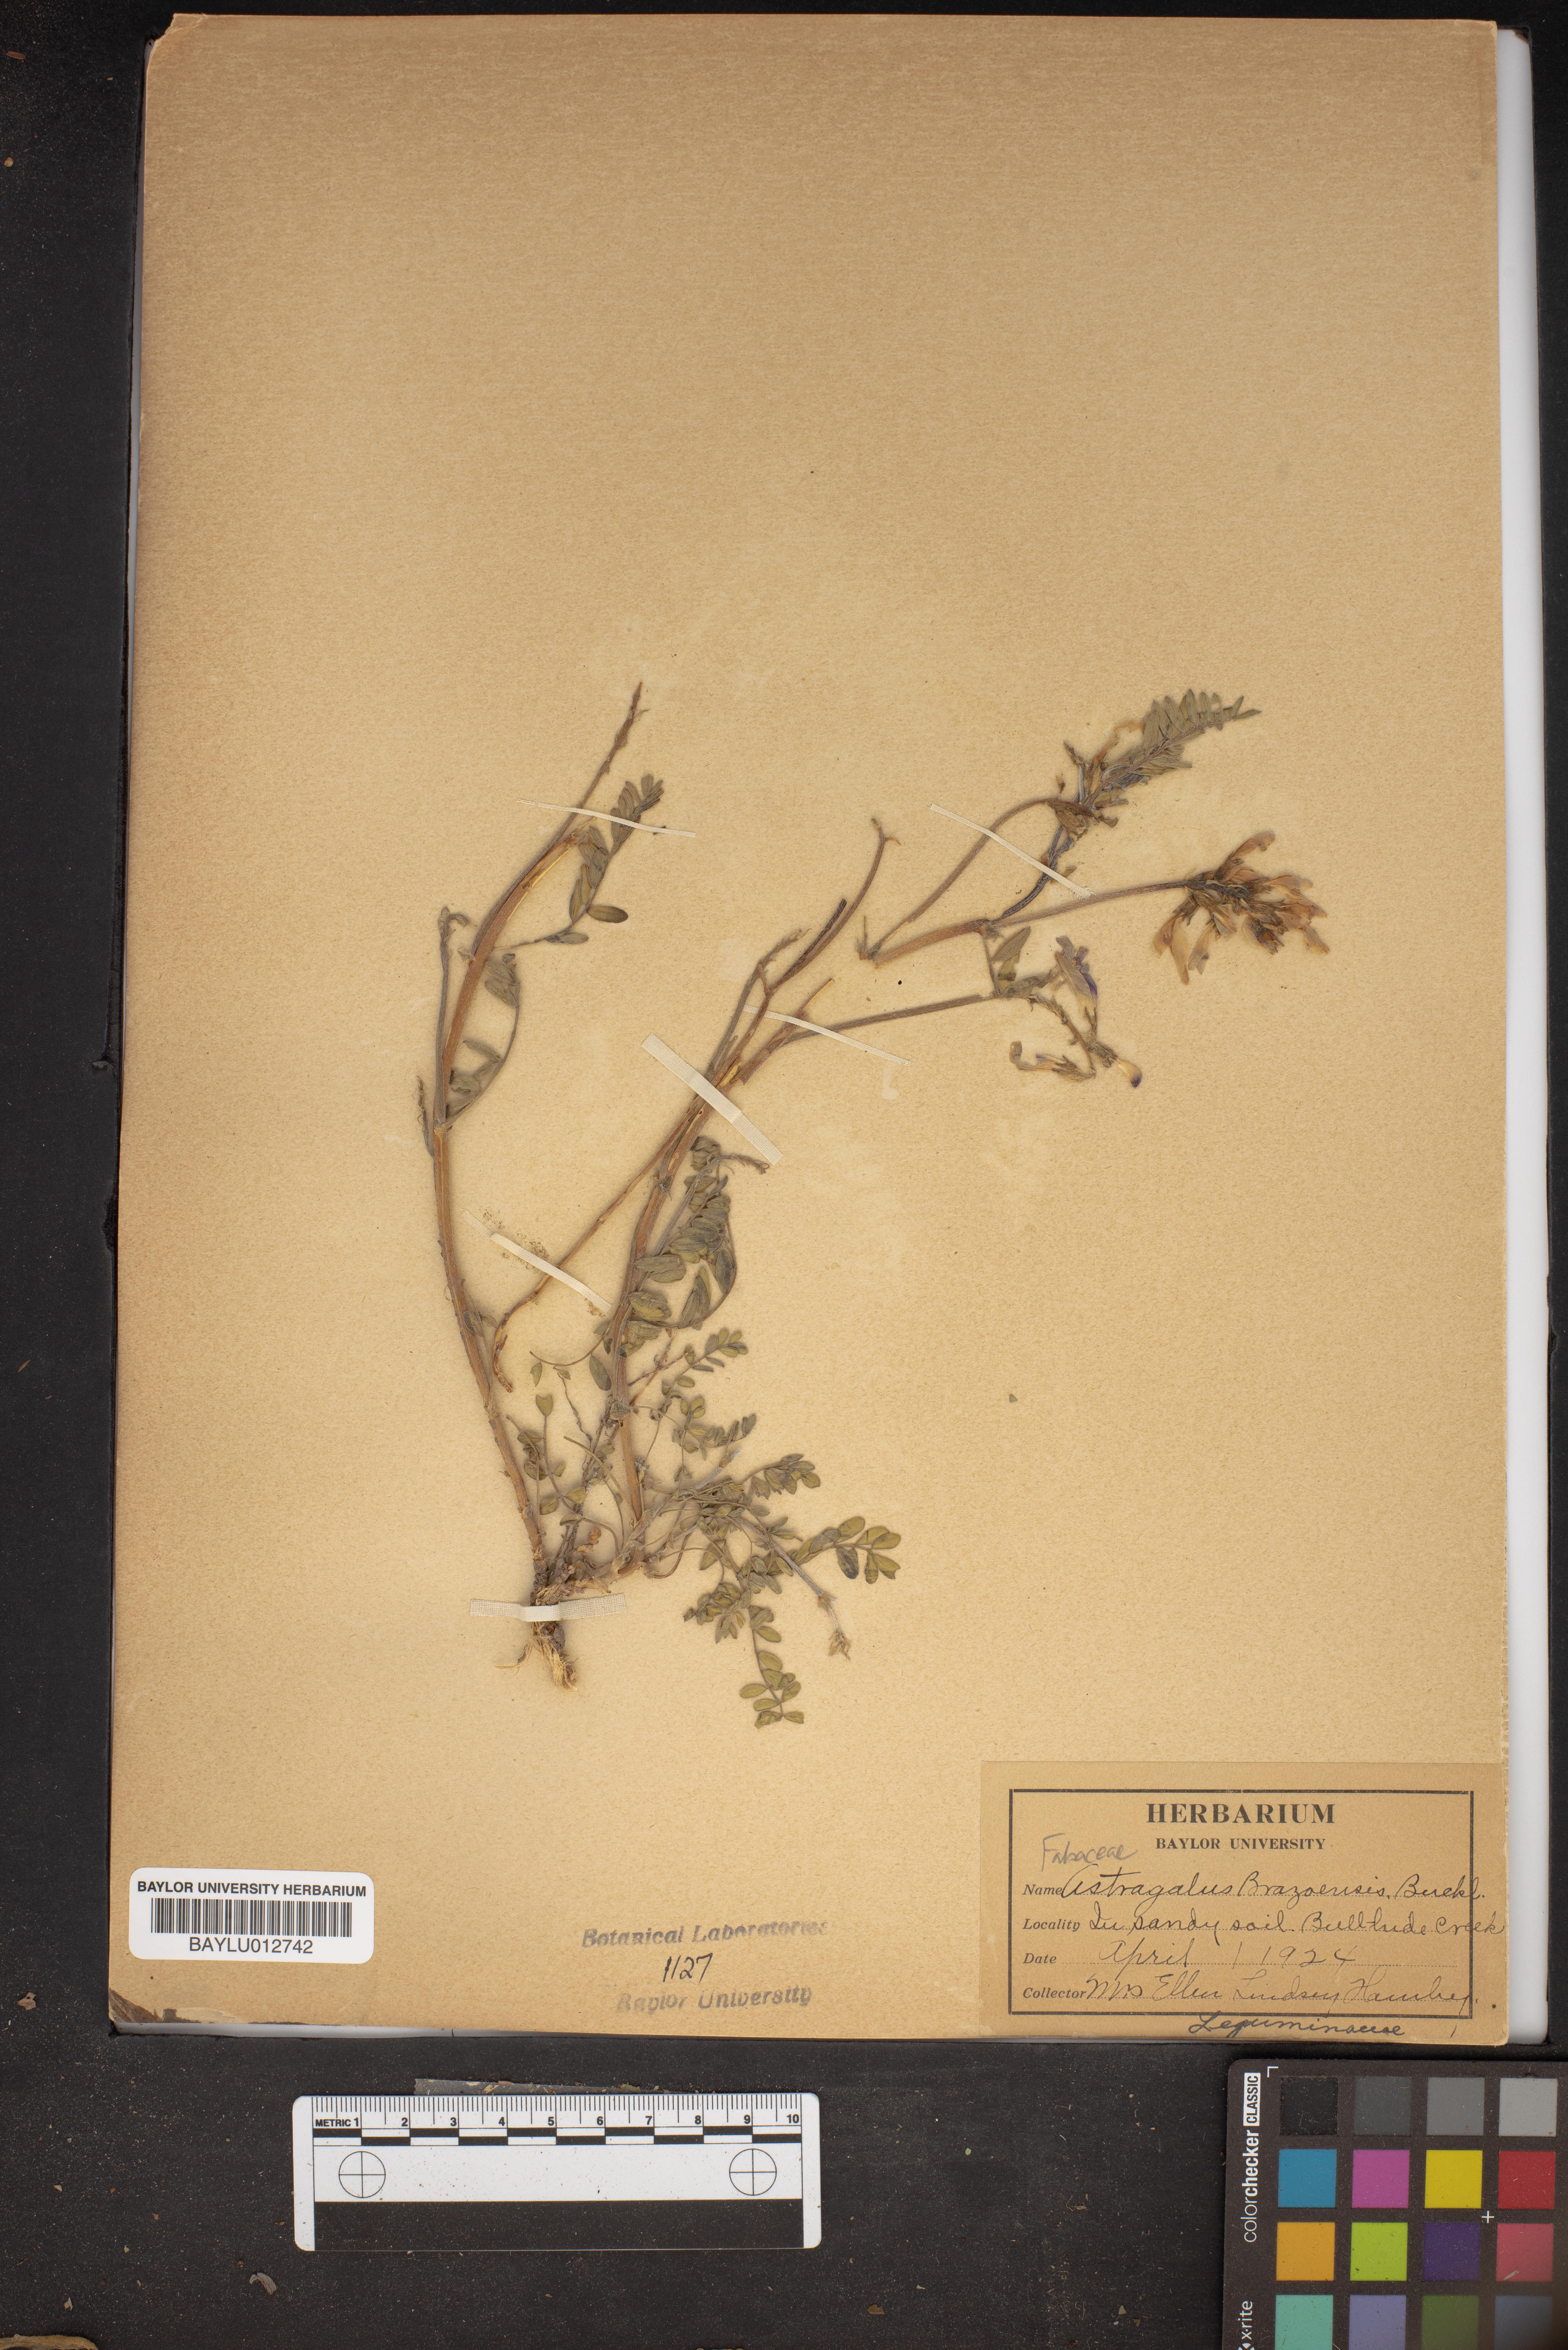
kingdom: Plantae
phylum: Tracheophyta
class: Magnoliopsida
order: Fabales
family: Fabaceae
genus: Astragalus
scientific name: Astragalus brazoensis
